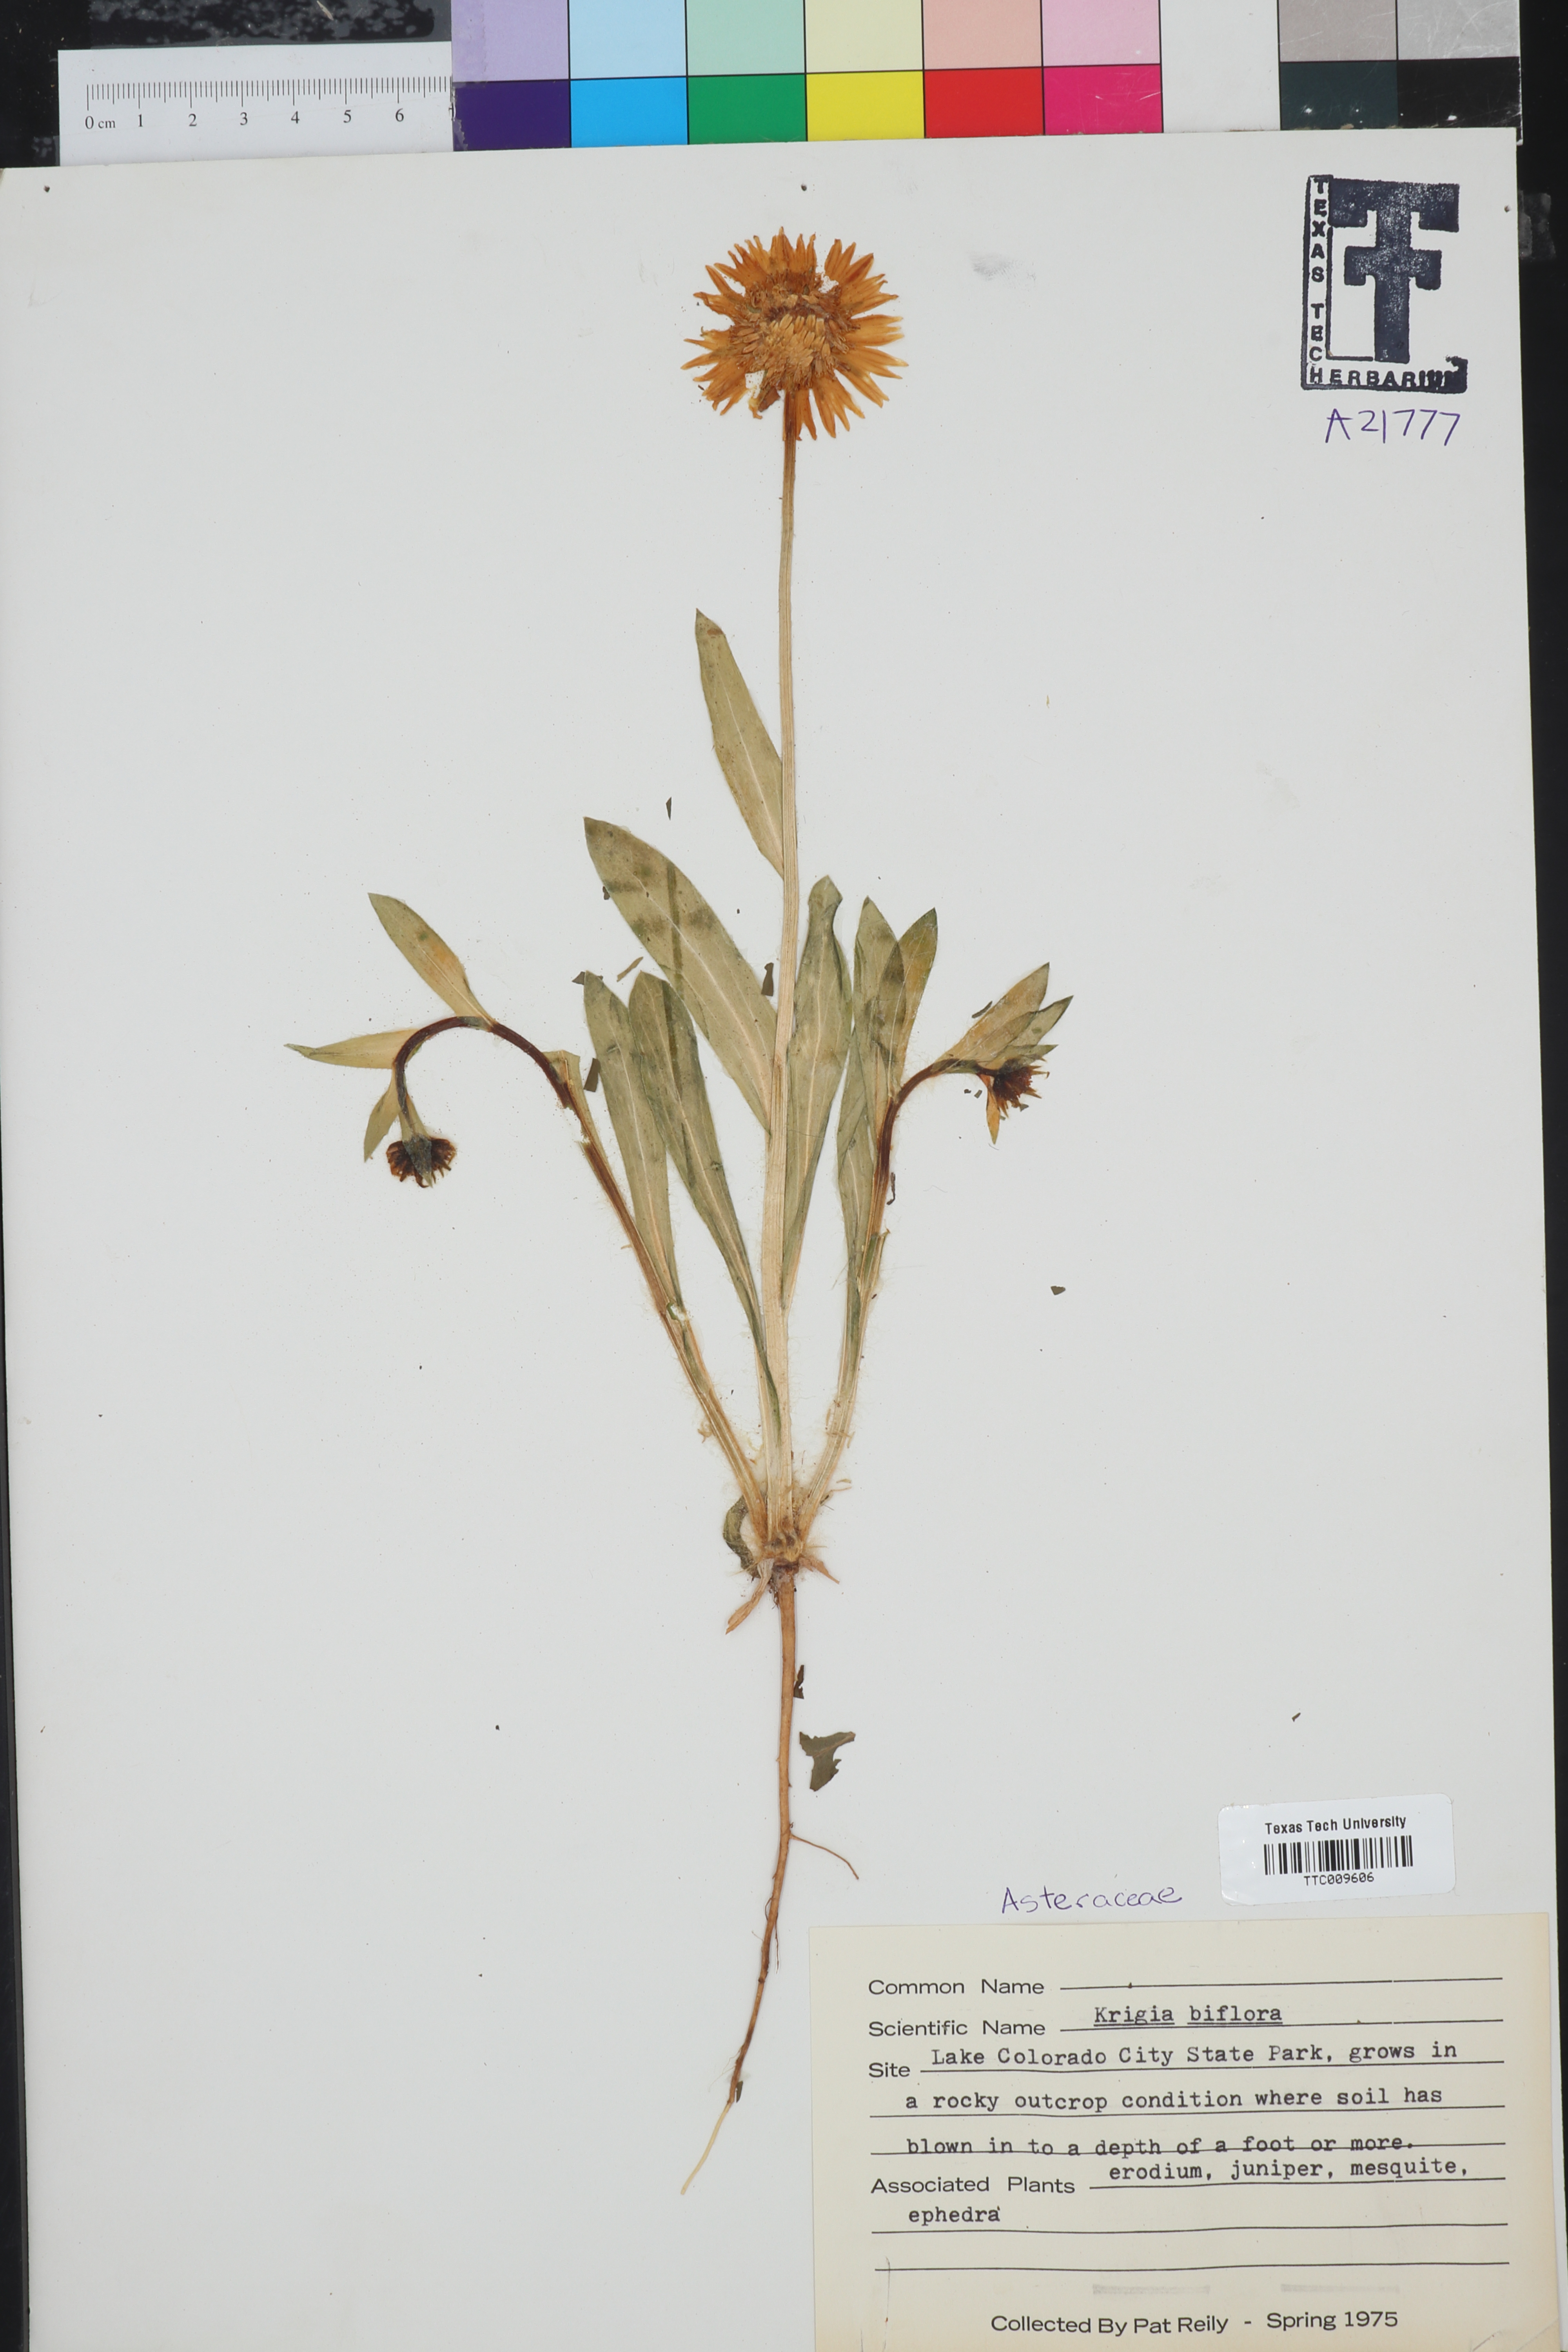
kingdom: Plantae
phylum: Tracheophyta
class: Magnoliopsida
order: Asterales
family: Asteraceae
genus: Krigia
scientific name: Krigia biflora
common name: Orange dwarf-dandelion
